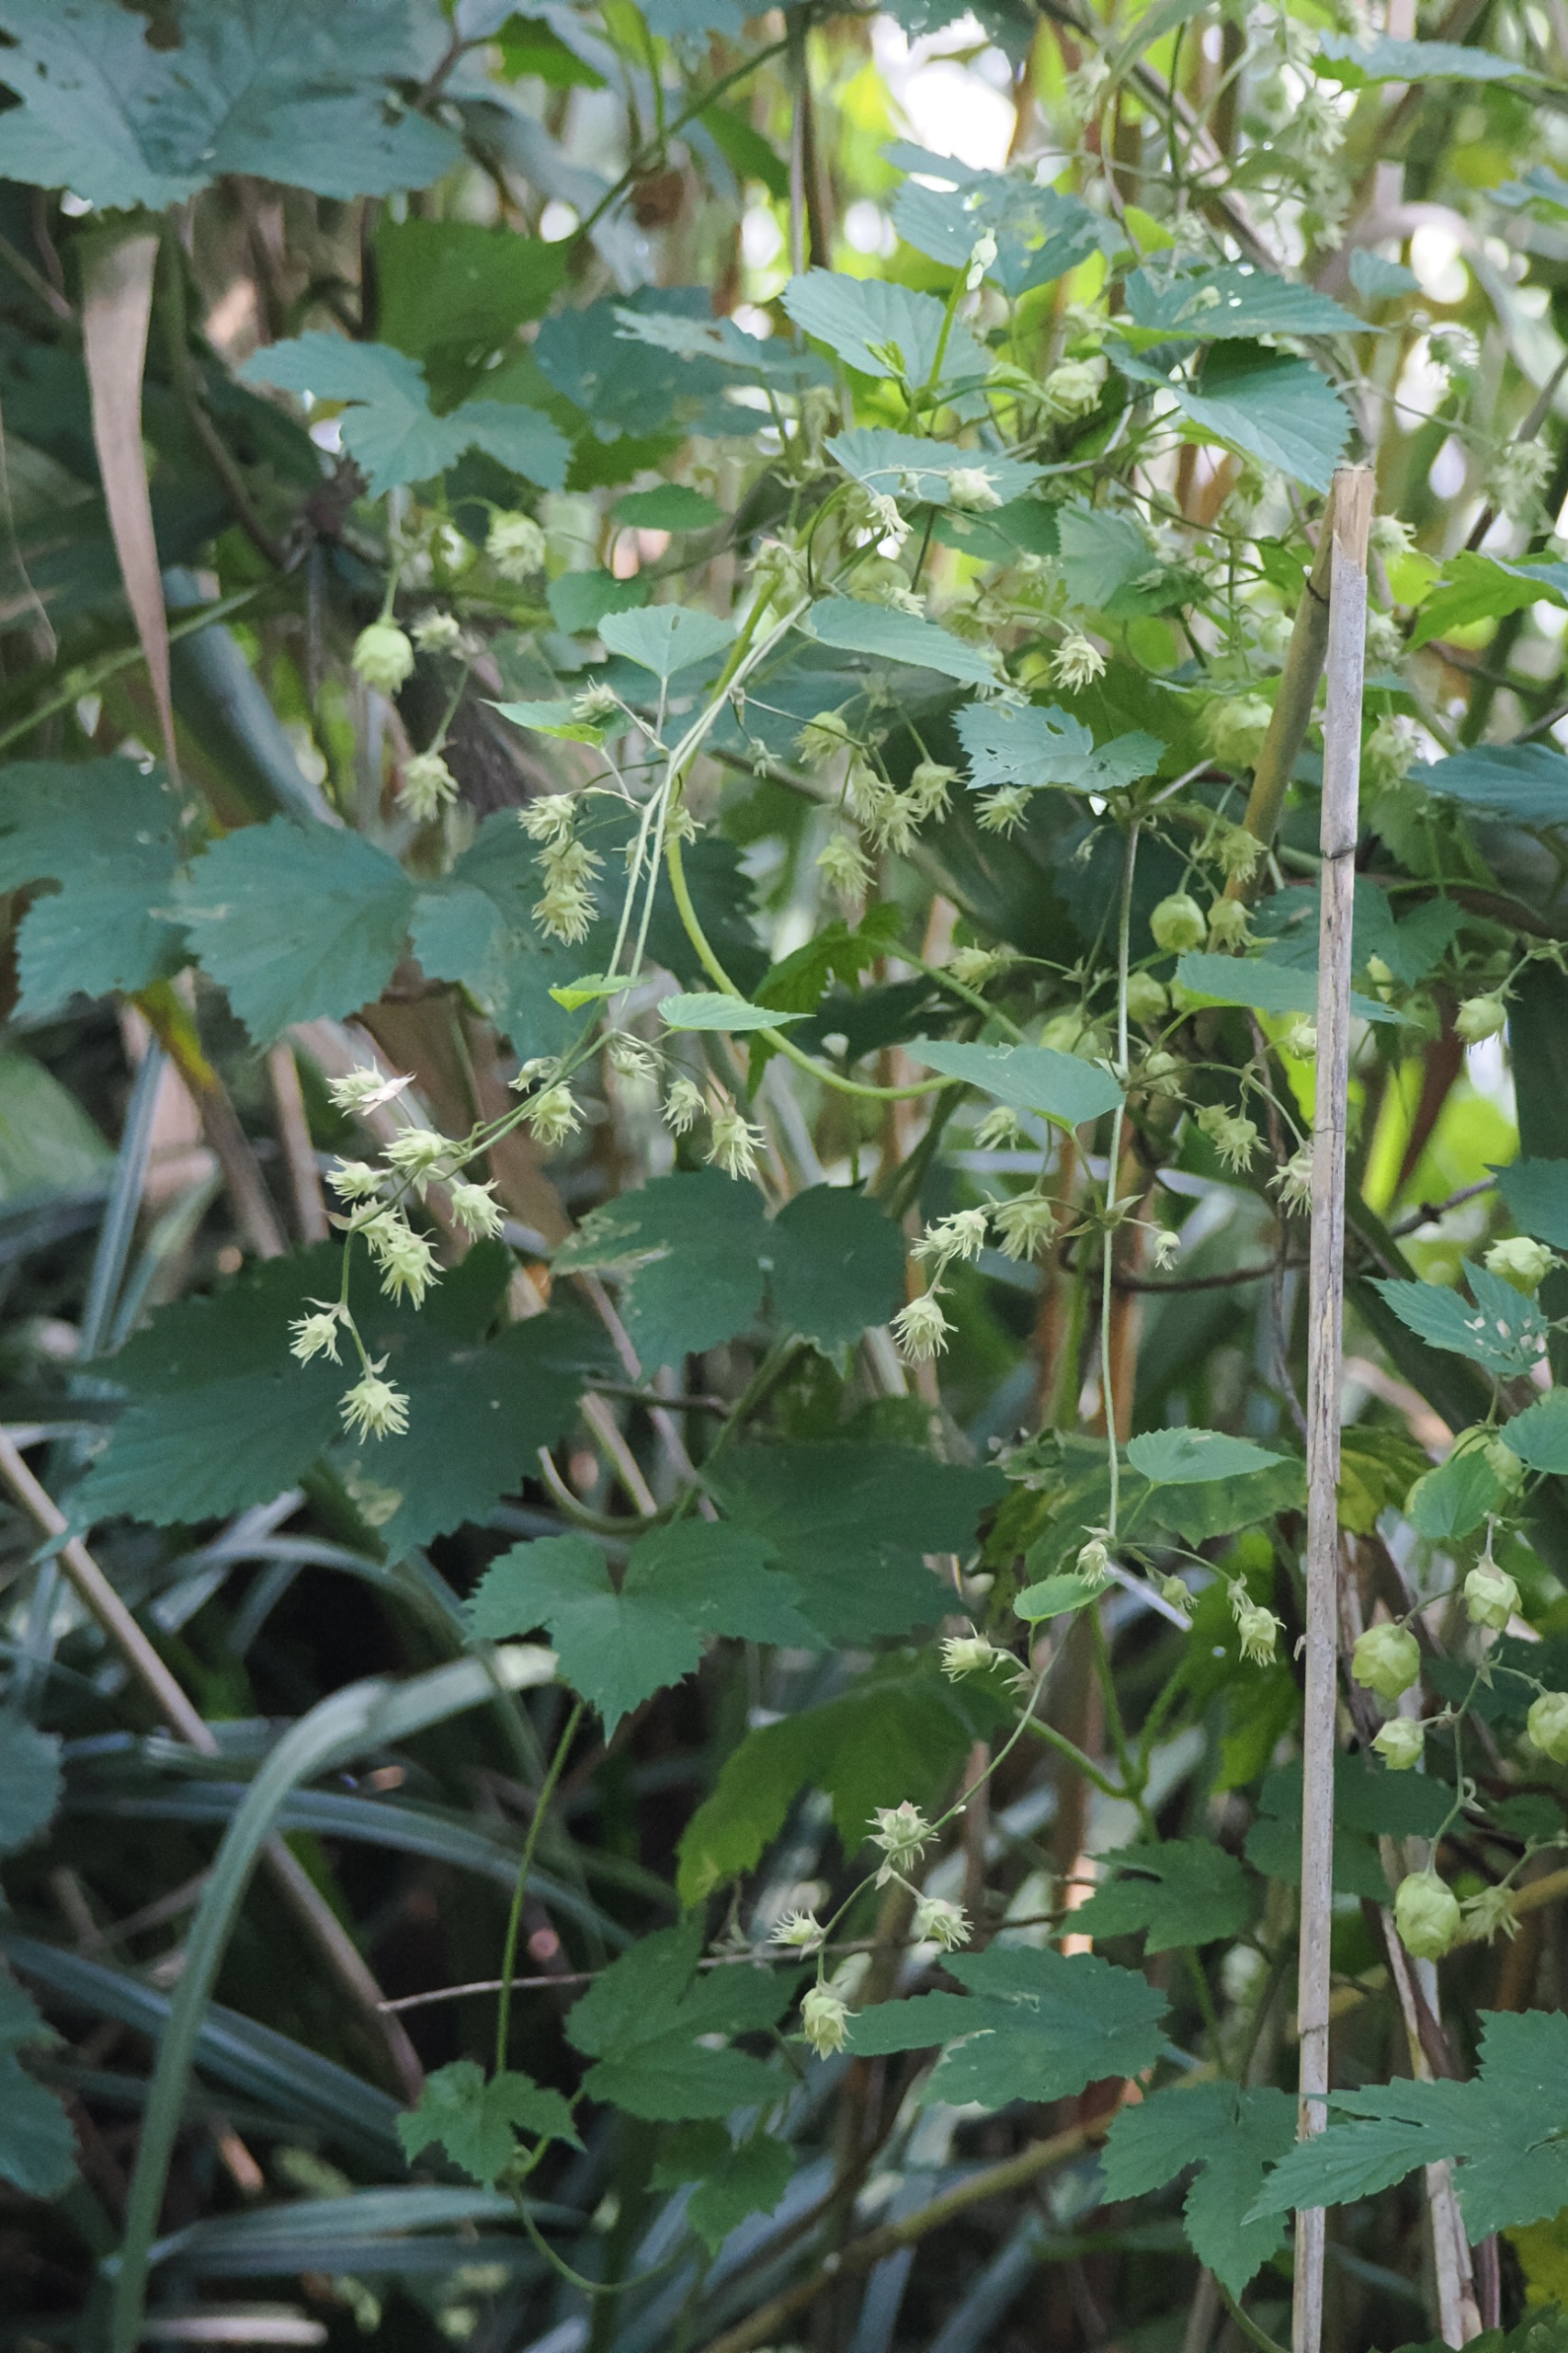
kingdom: Plantae
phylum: Tracheophyta
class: Magnoliopsida
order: Rosales
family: Cannabaceae
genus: Humulus
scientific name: Humulus lupulus
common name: Humle
